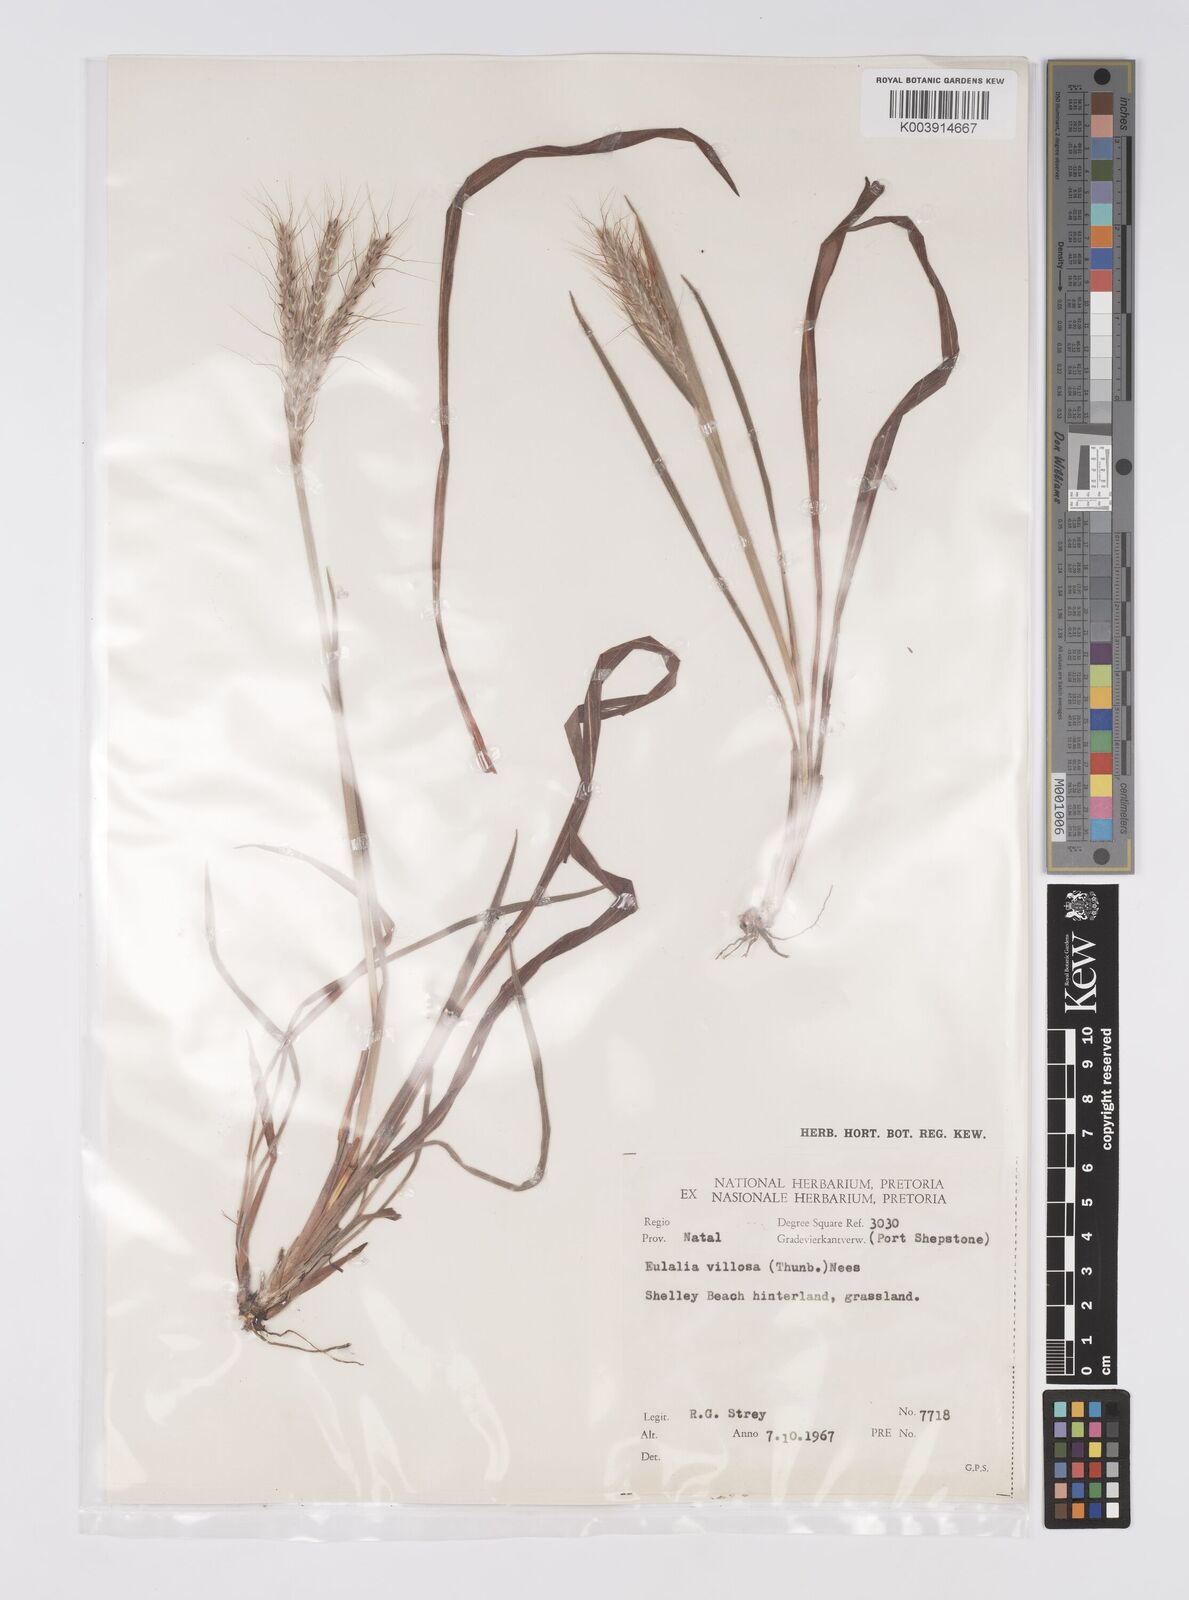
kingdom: Plantae
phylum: Tracheophyta
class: Liliopsida
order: Poales
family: Poaceae
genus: Eulalia
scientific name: Eulalia villosa
